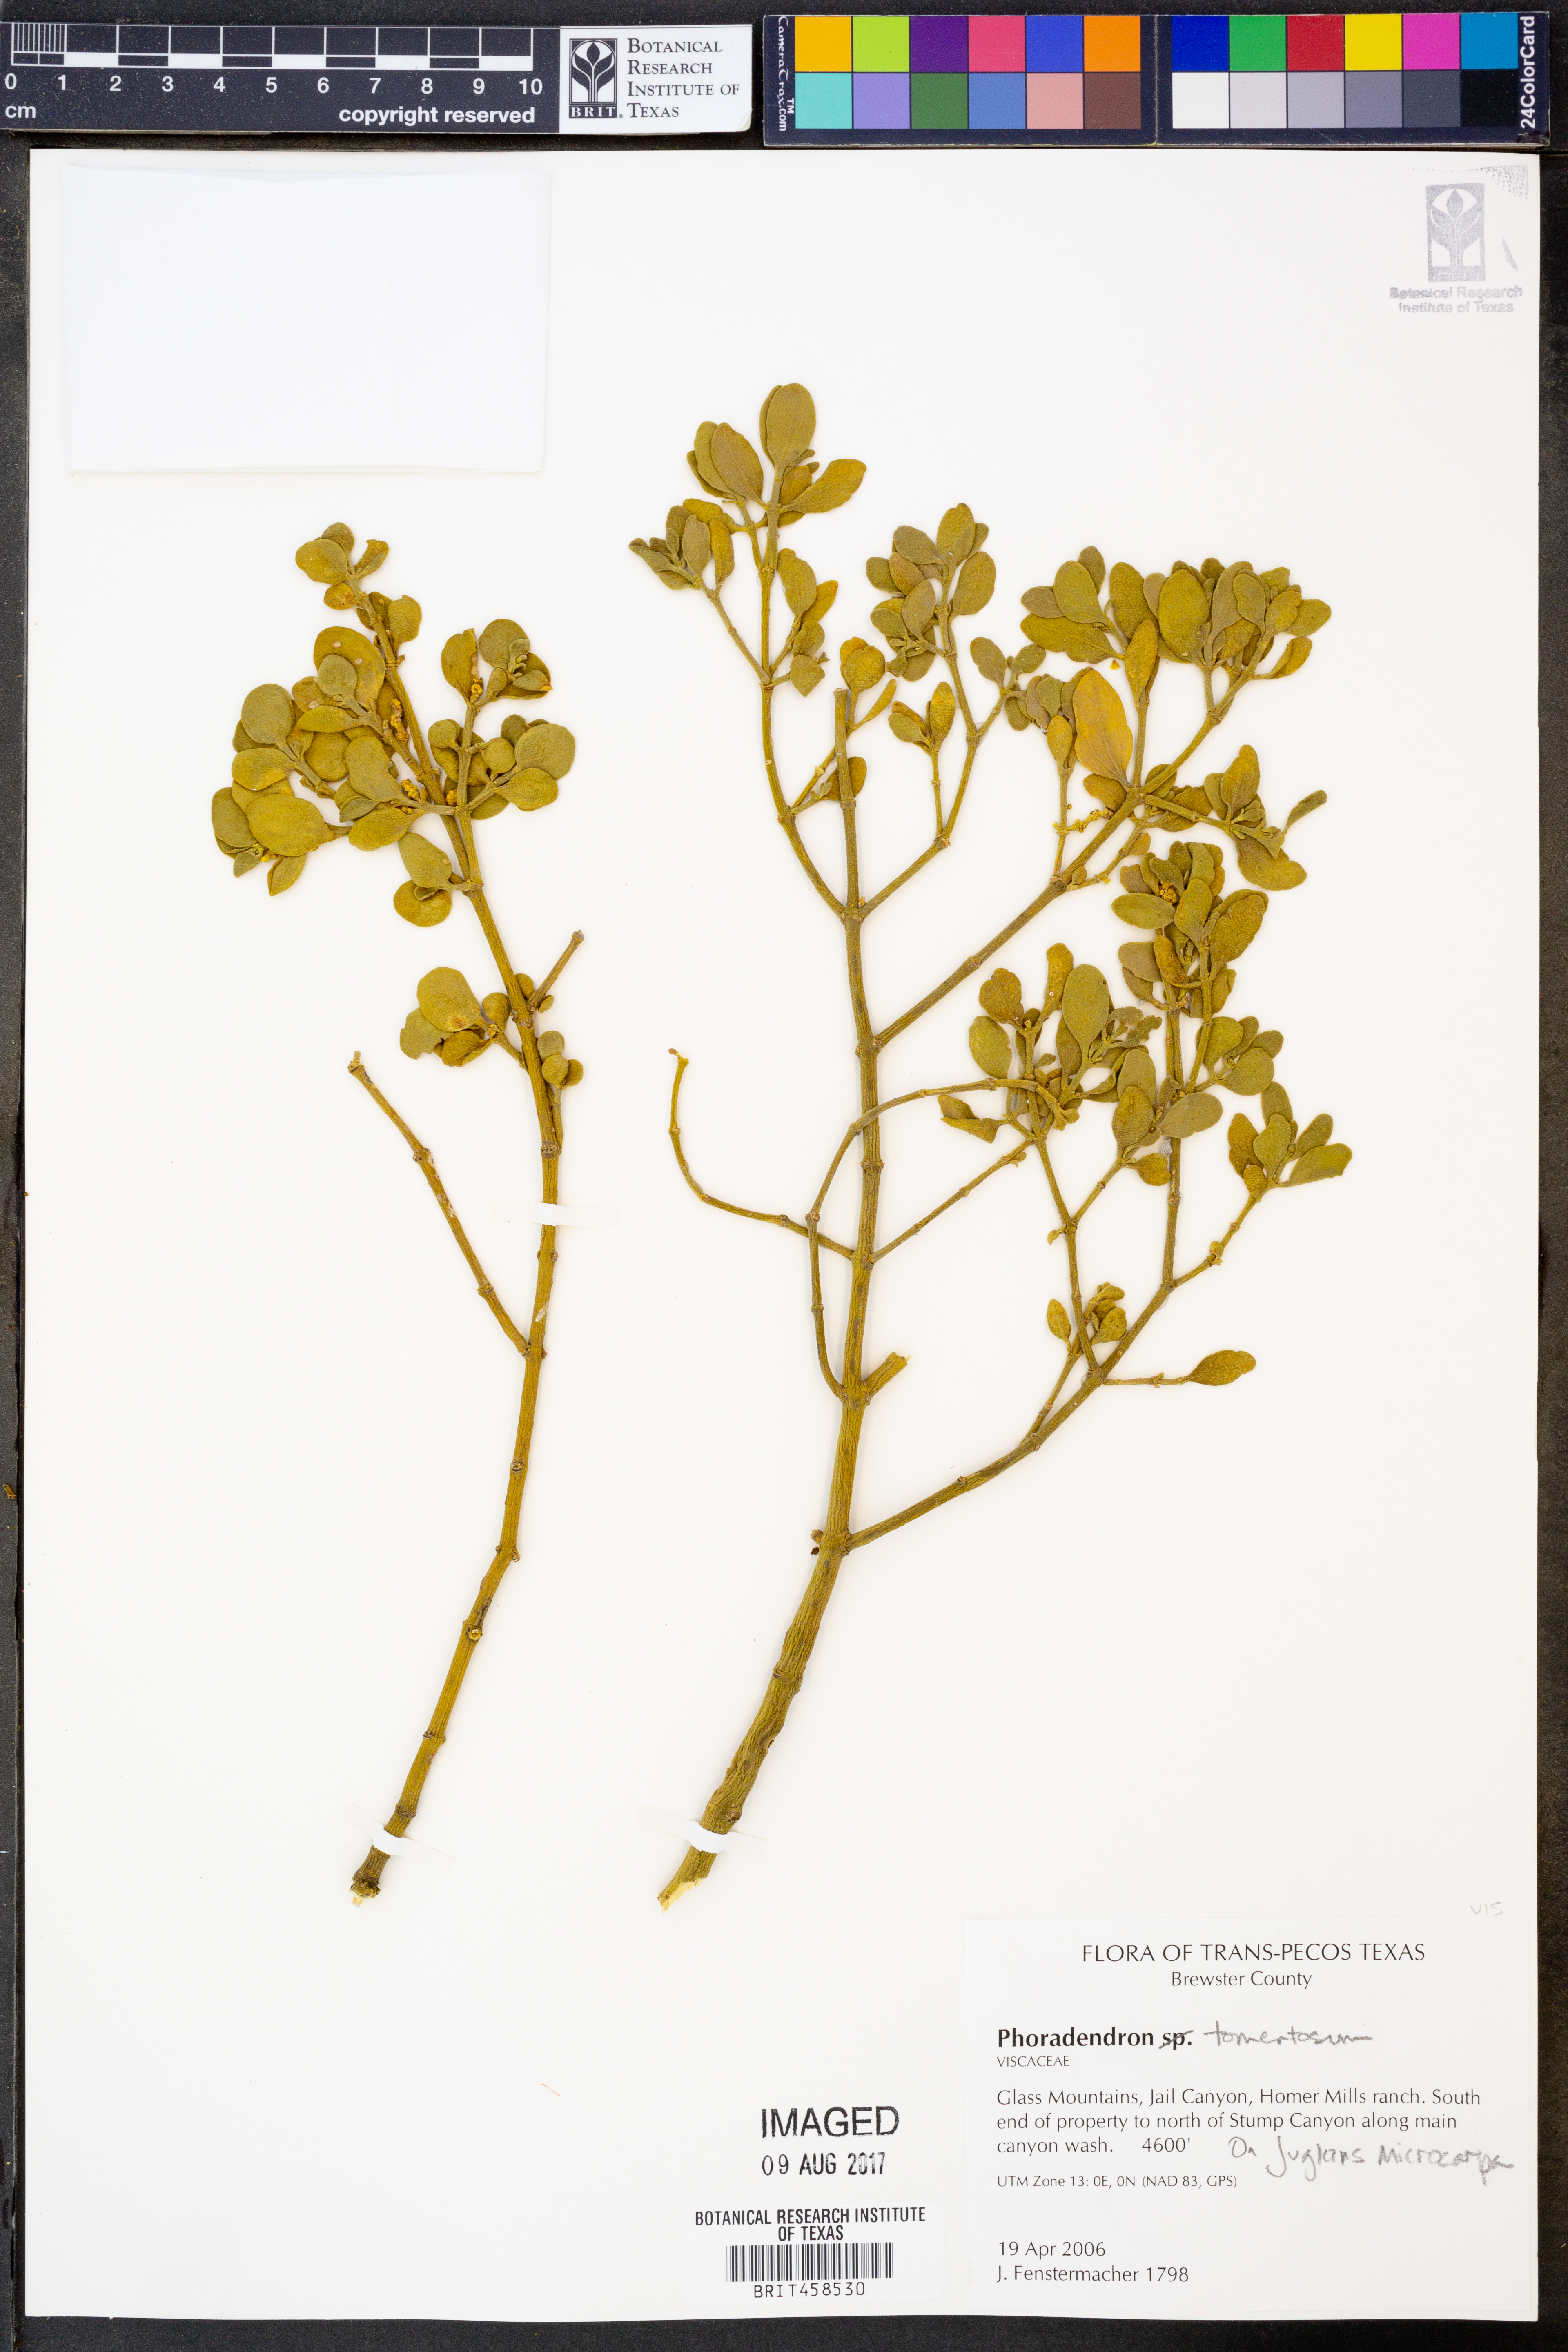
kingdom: Plantae
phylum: Tracheophyta
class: Magnoliopsida
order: Santalales
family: Viscaceae
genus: Phoradendron
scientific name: Phoradendron leucarpum
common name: Pacific mistletoe
